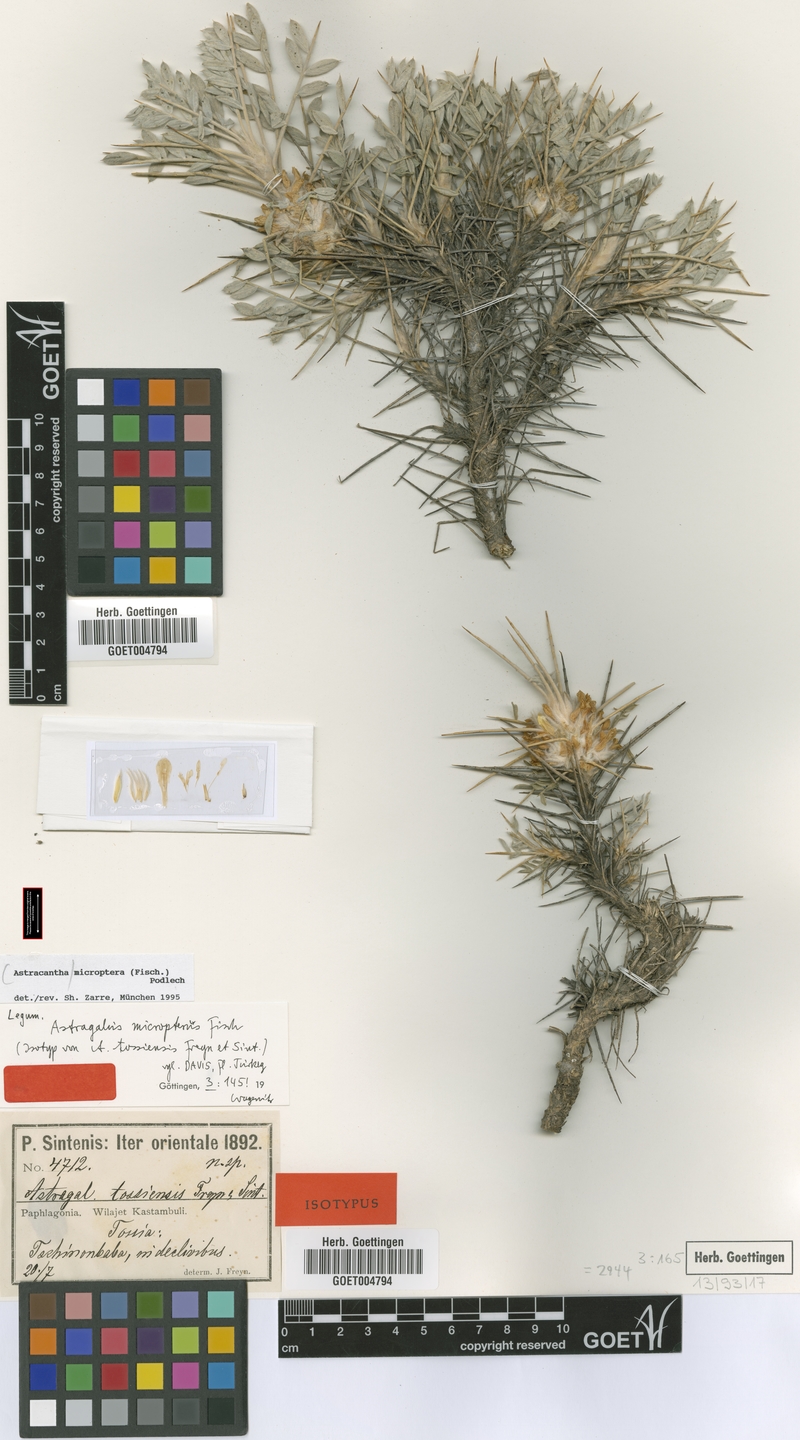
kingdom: Plantae
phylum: Tracheophyta
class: Magnoliopsida
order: Fabales
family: Fabaceae
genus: Astragalus
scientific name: Astragalus micropterus
